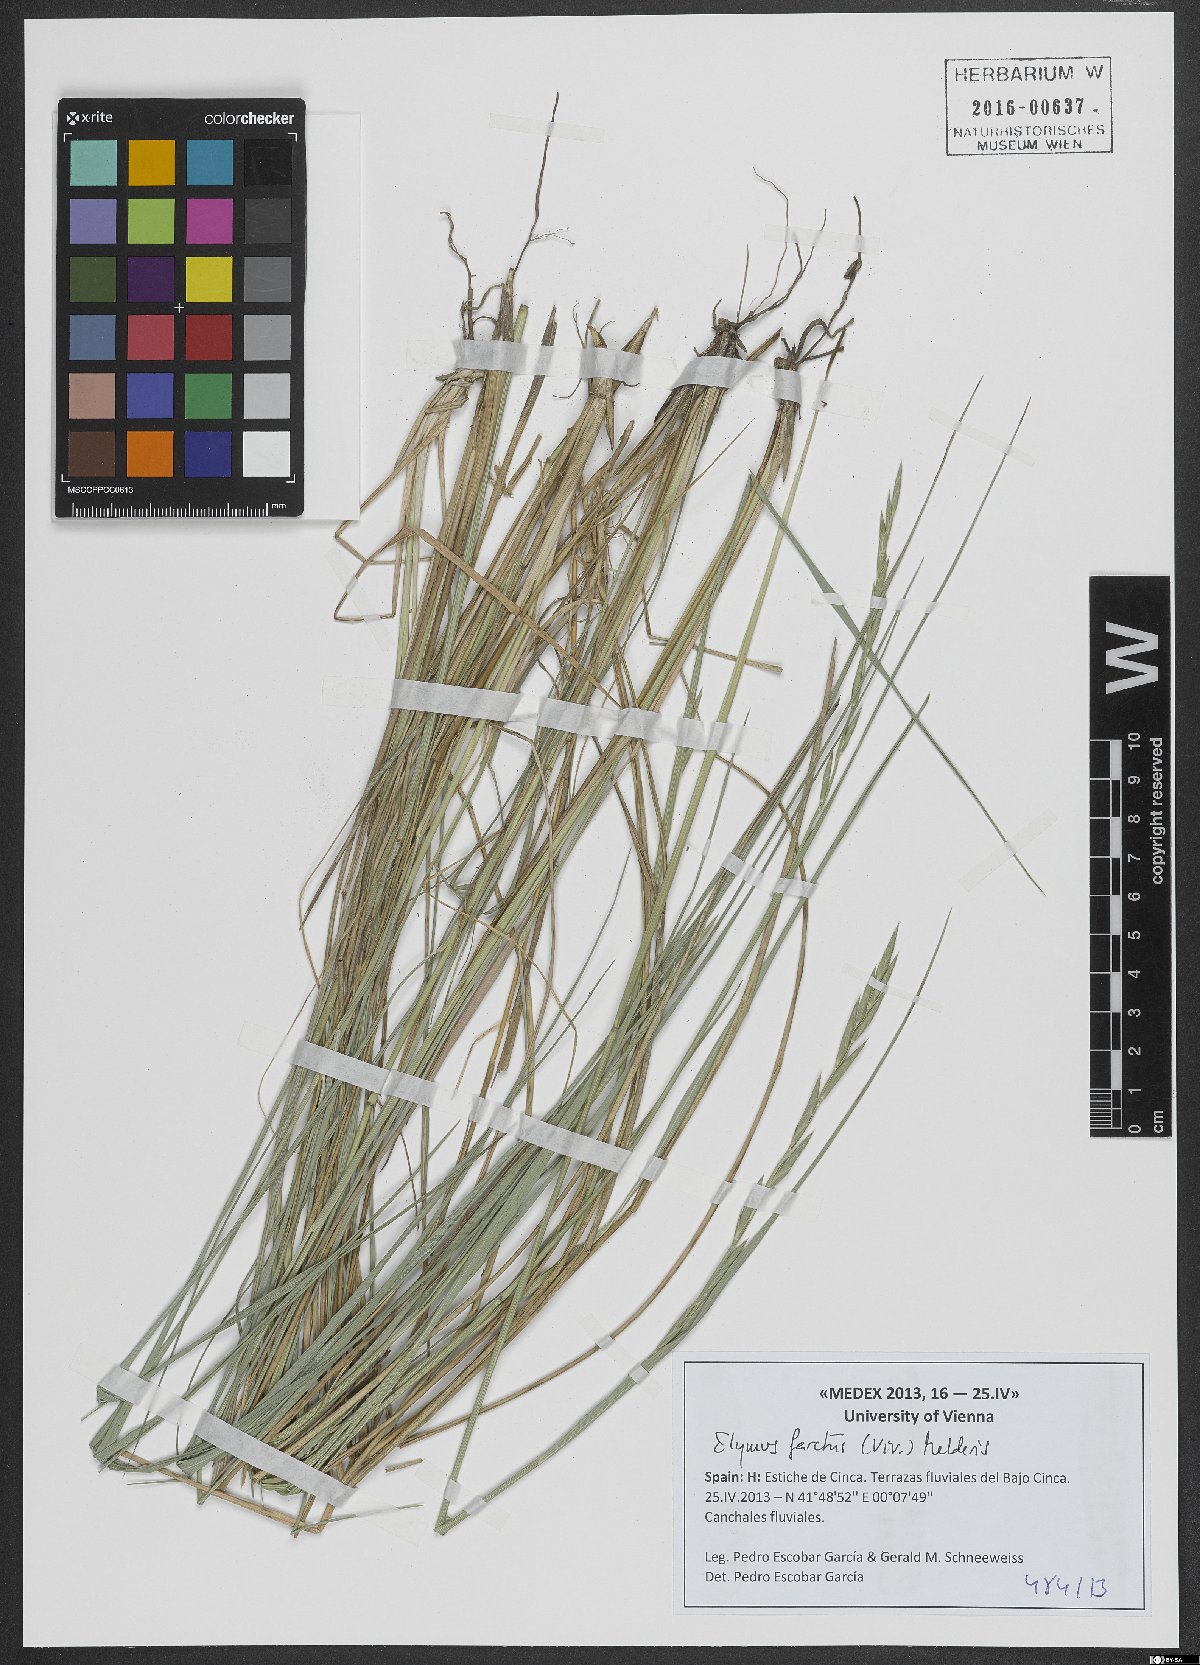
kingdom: Plantae
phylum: Tracheophyta
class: Liliopsida
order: Poales
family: Poaceae
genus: Thinopyrum
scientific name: Thinopyrum junceum
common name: Russian wheatgrass
